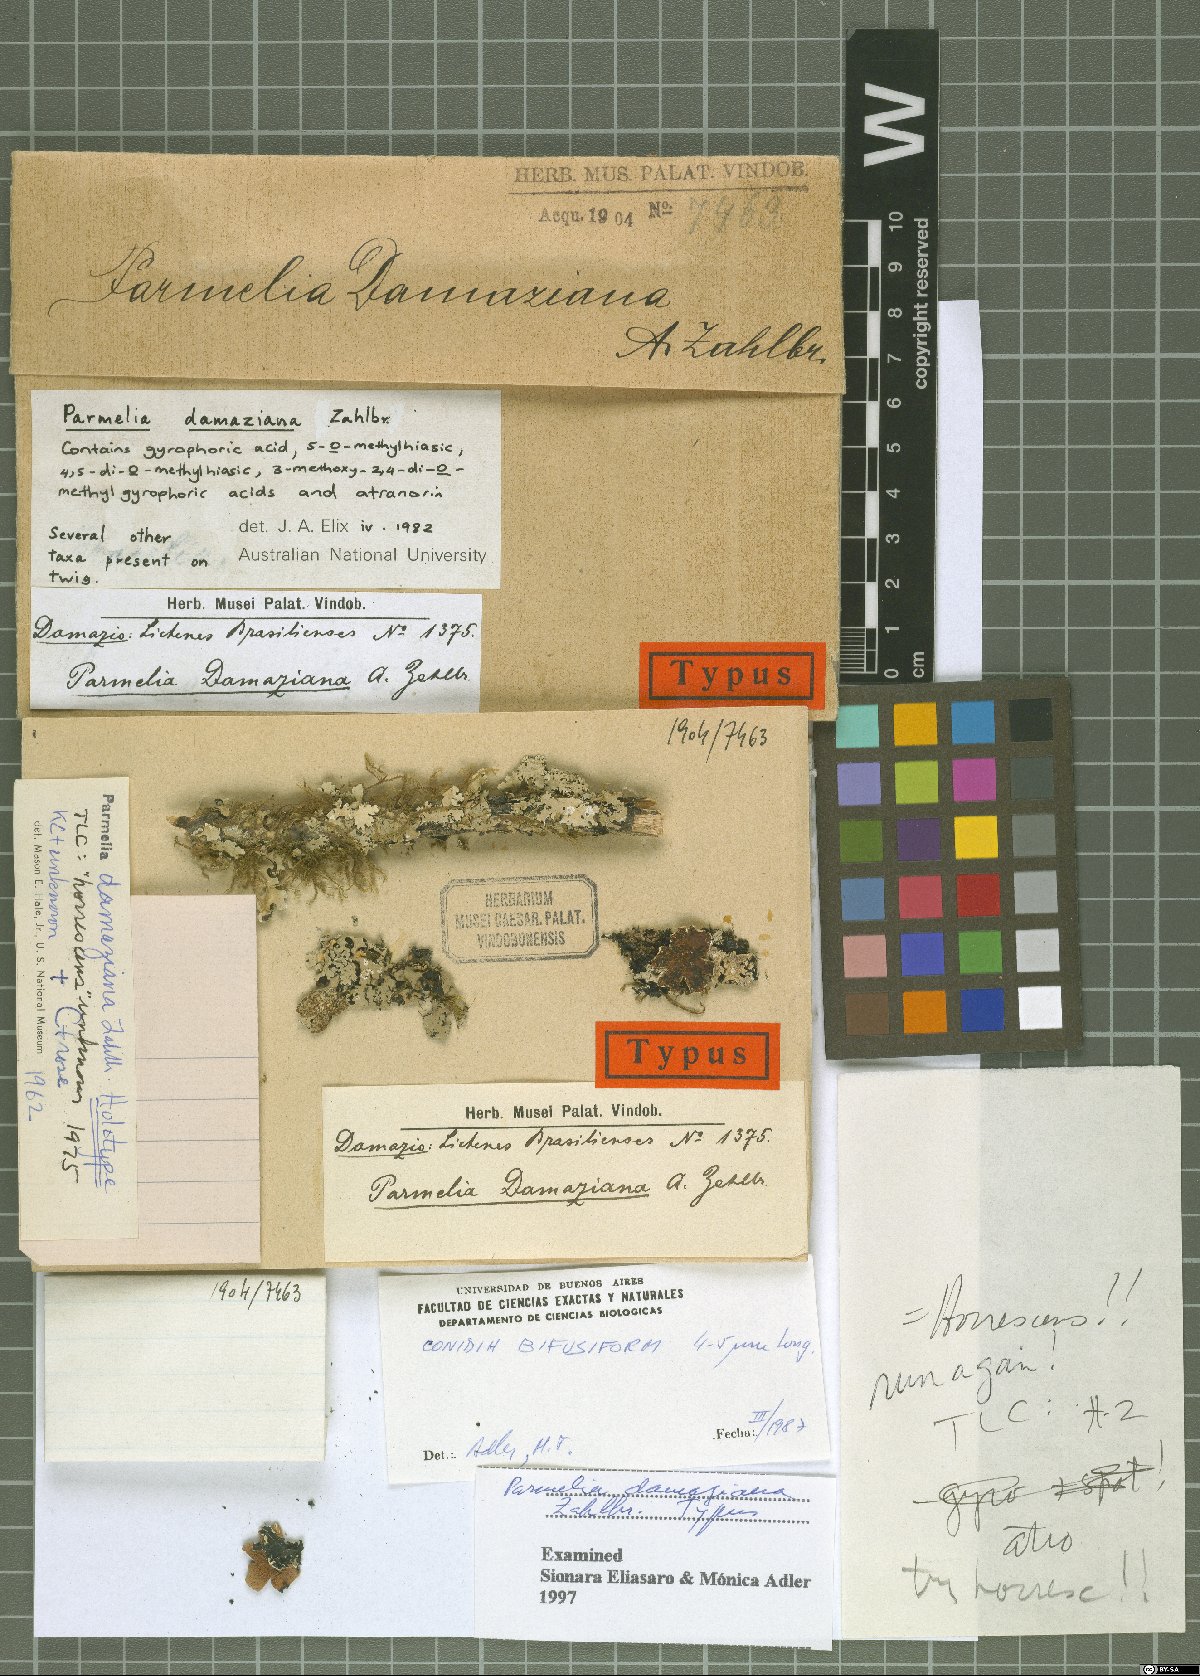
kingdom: Fungi
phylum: Ascomycota
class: Lecanoromycetes
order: Lecanorales
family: Parmeliaceae
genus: Hypotrachyna
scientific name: Hypotrachyna damaziana
